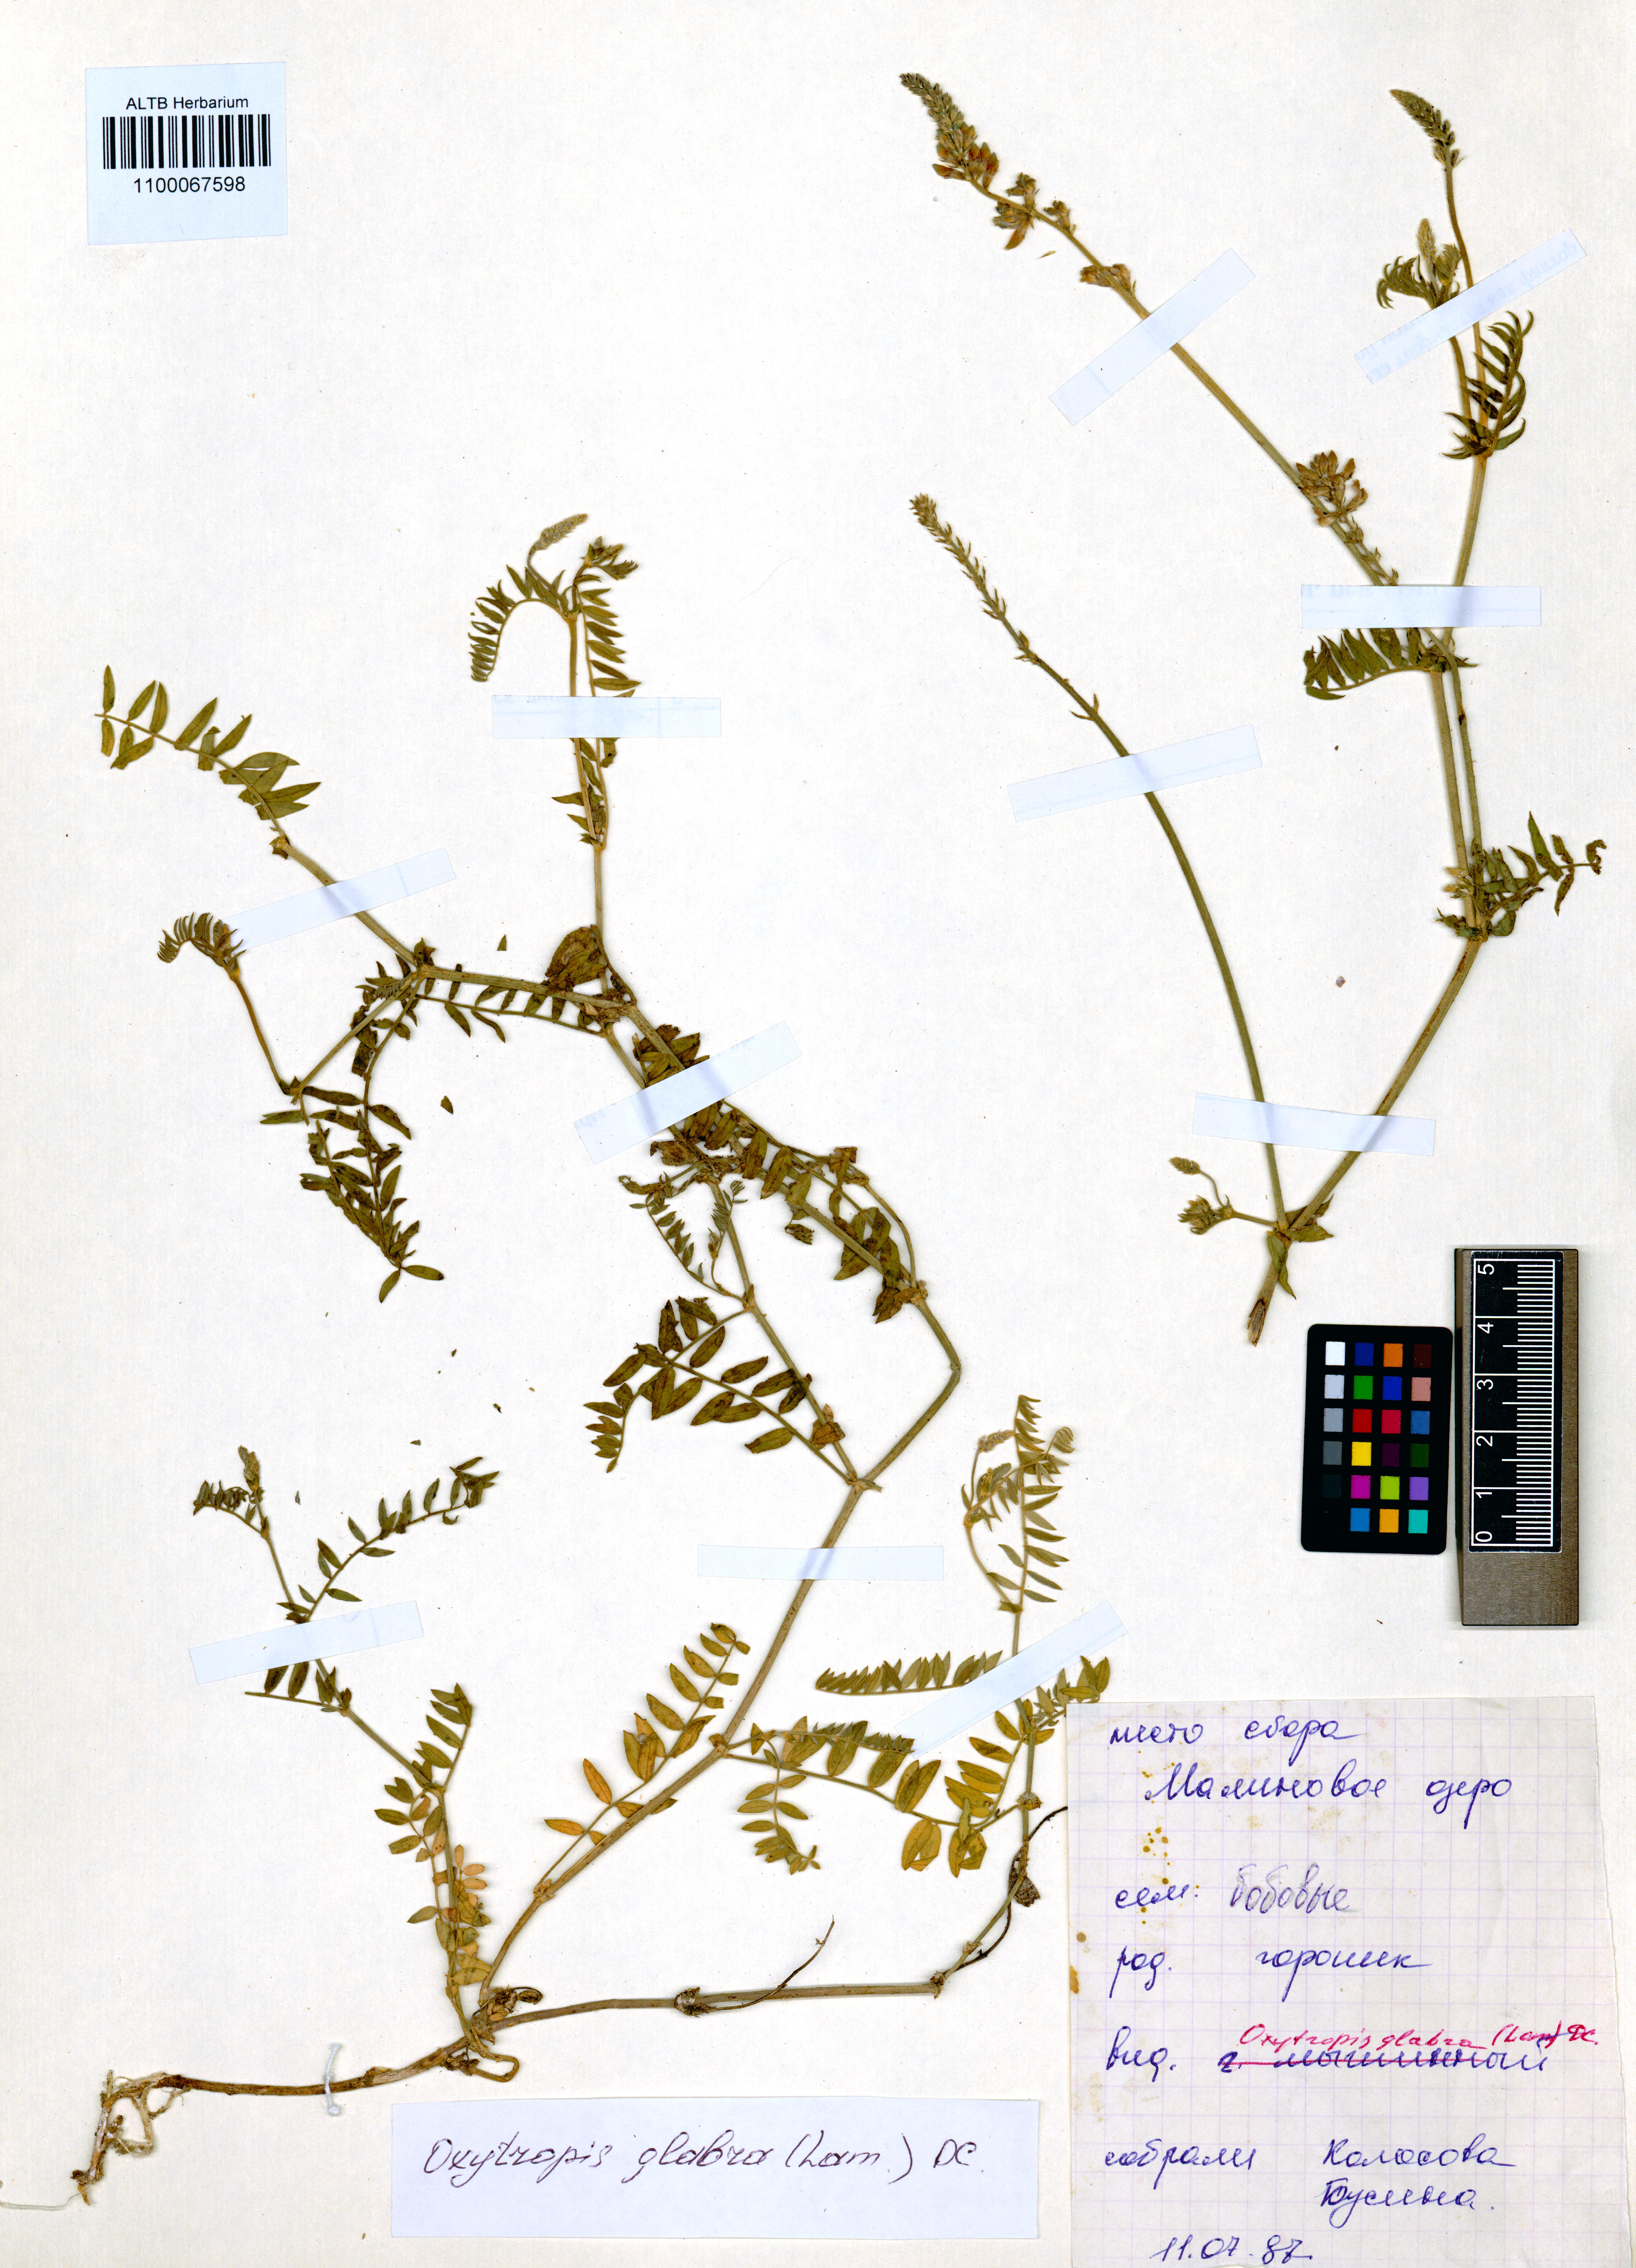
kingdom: Plantae
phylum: Tracheophyta
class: Magnoliopsida
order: Fabales
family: Fabaceae
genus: Oxytropis
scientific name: Oxytropis glabra
